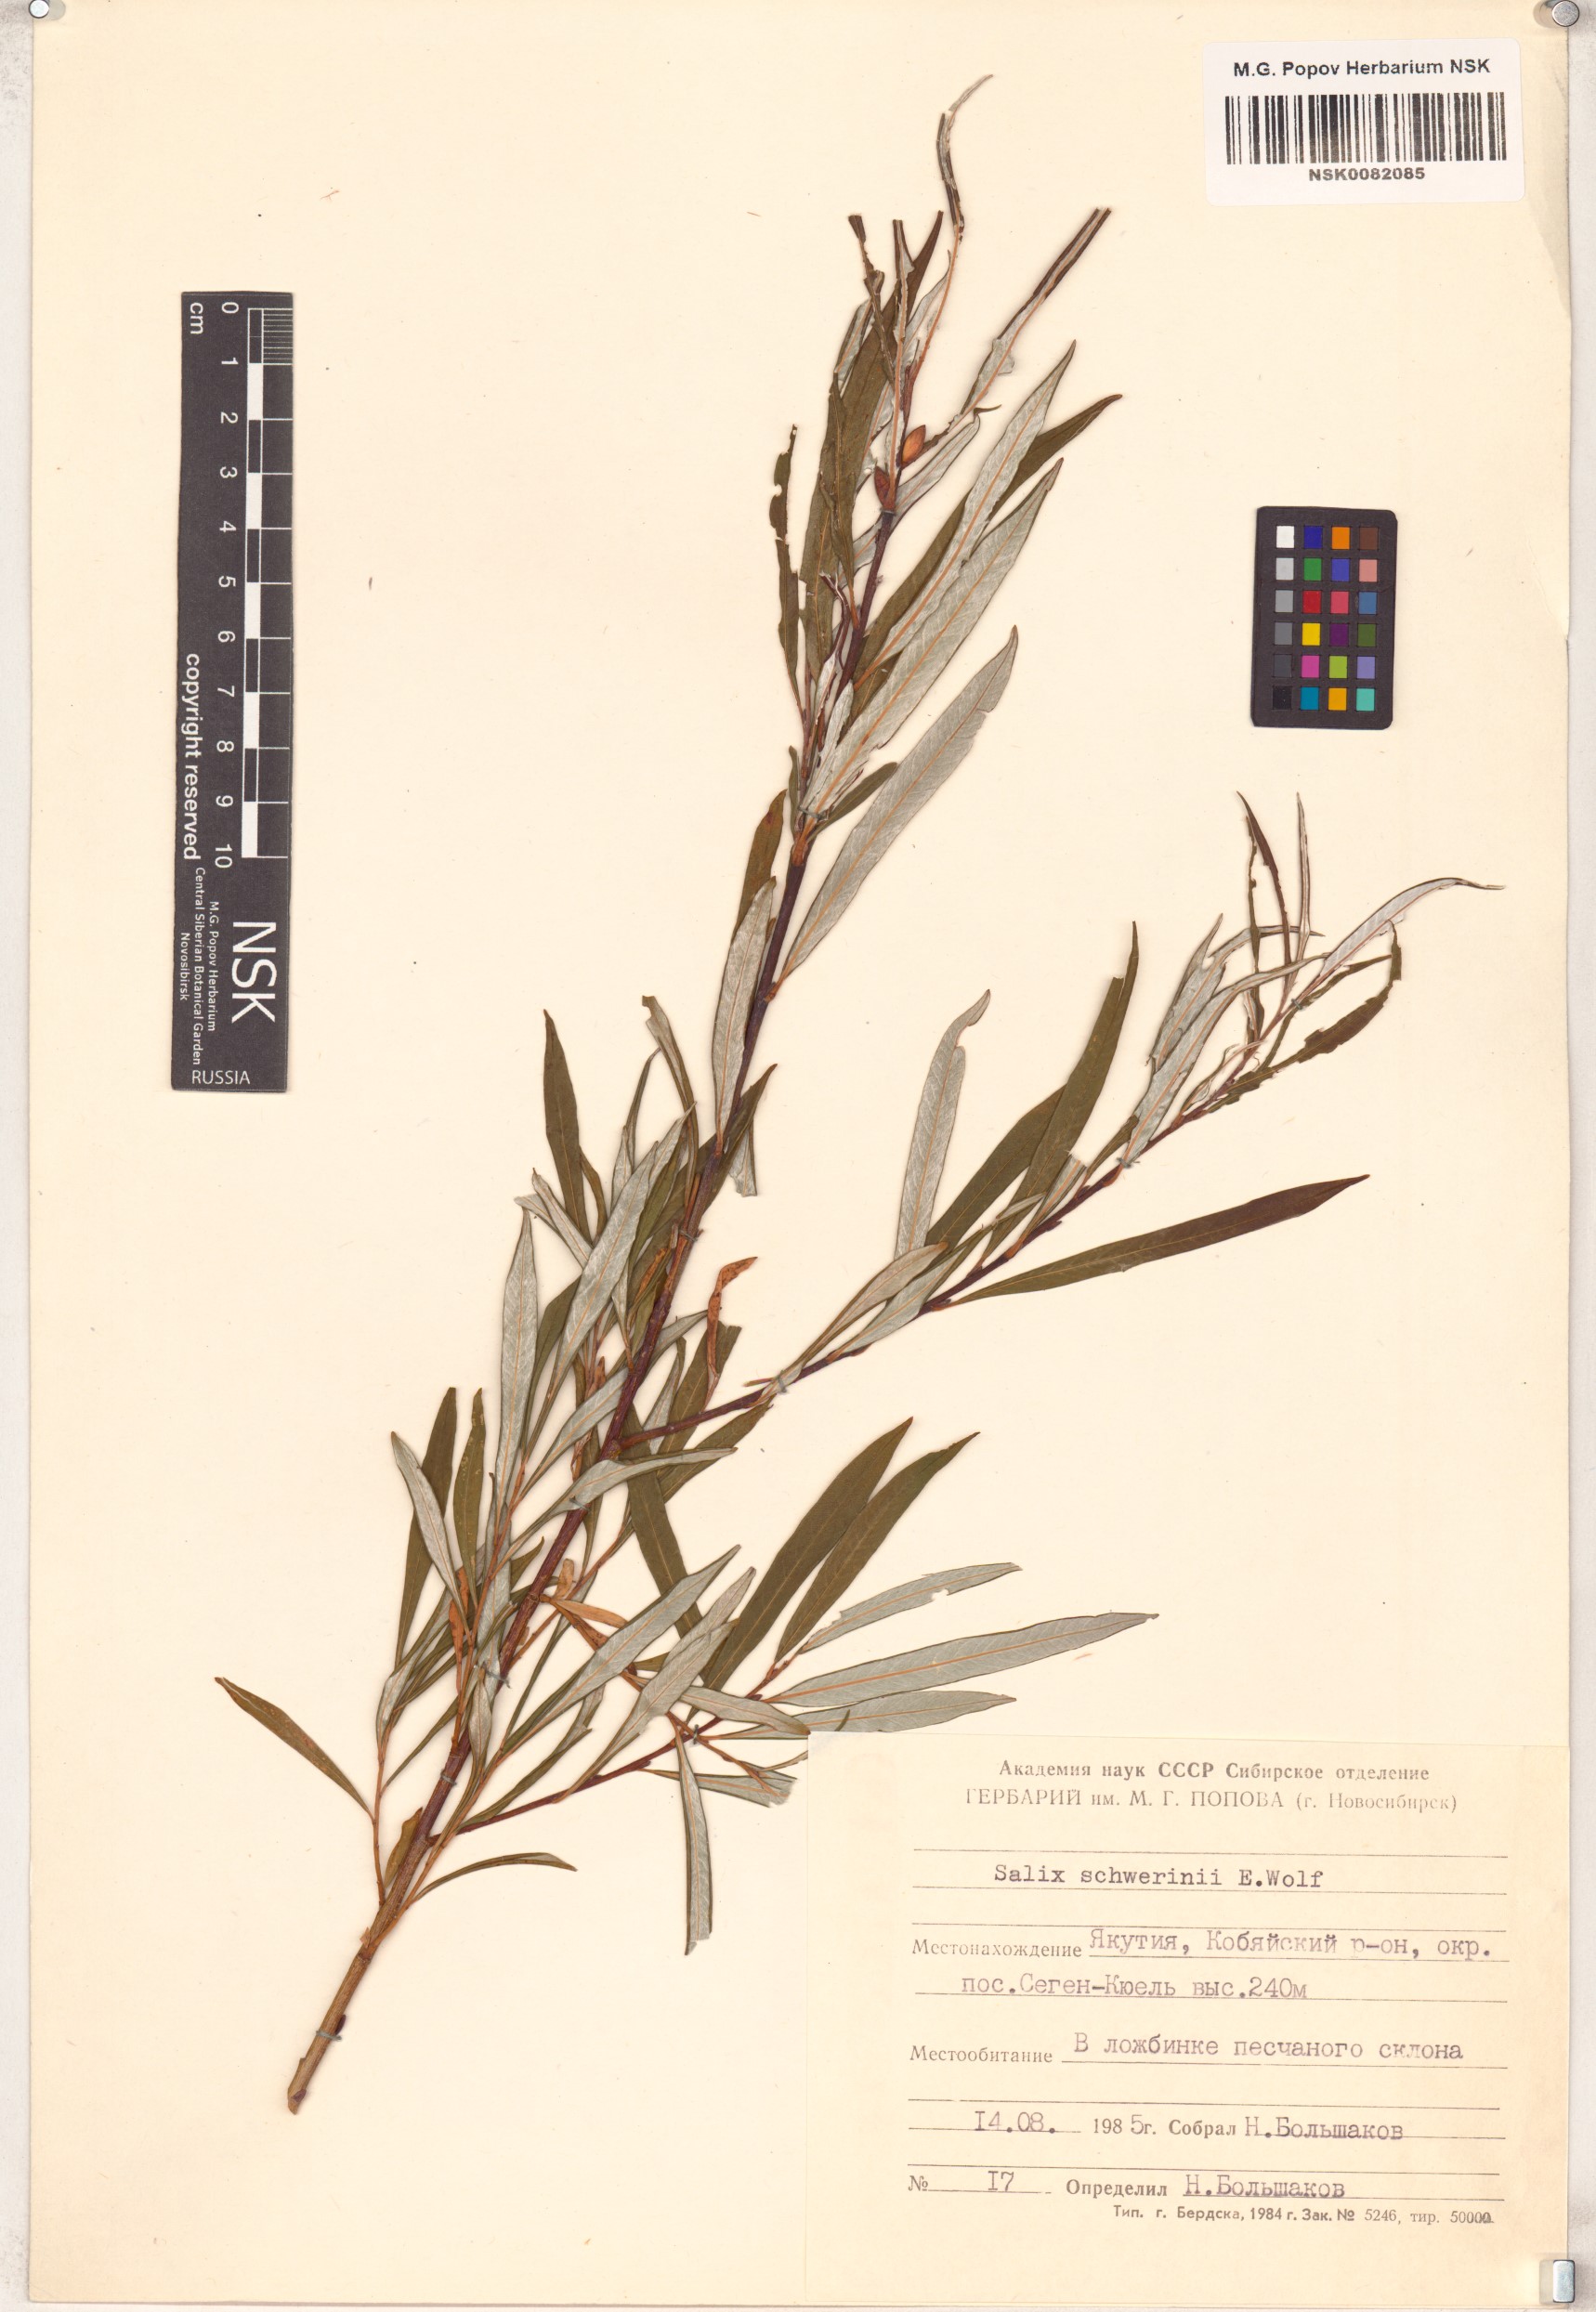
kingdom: Plantae
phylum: Tracheophyta
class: Magnoliopsida
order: Malpighiales
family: Salicaceae
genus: Salix
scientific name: Salix schwerinii
